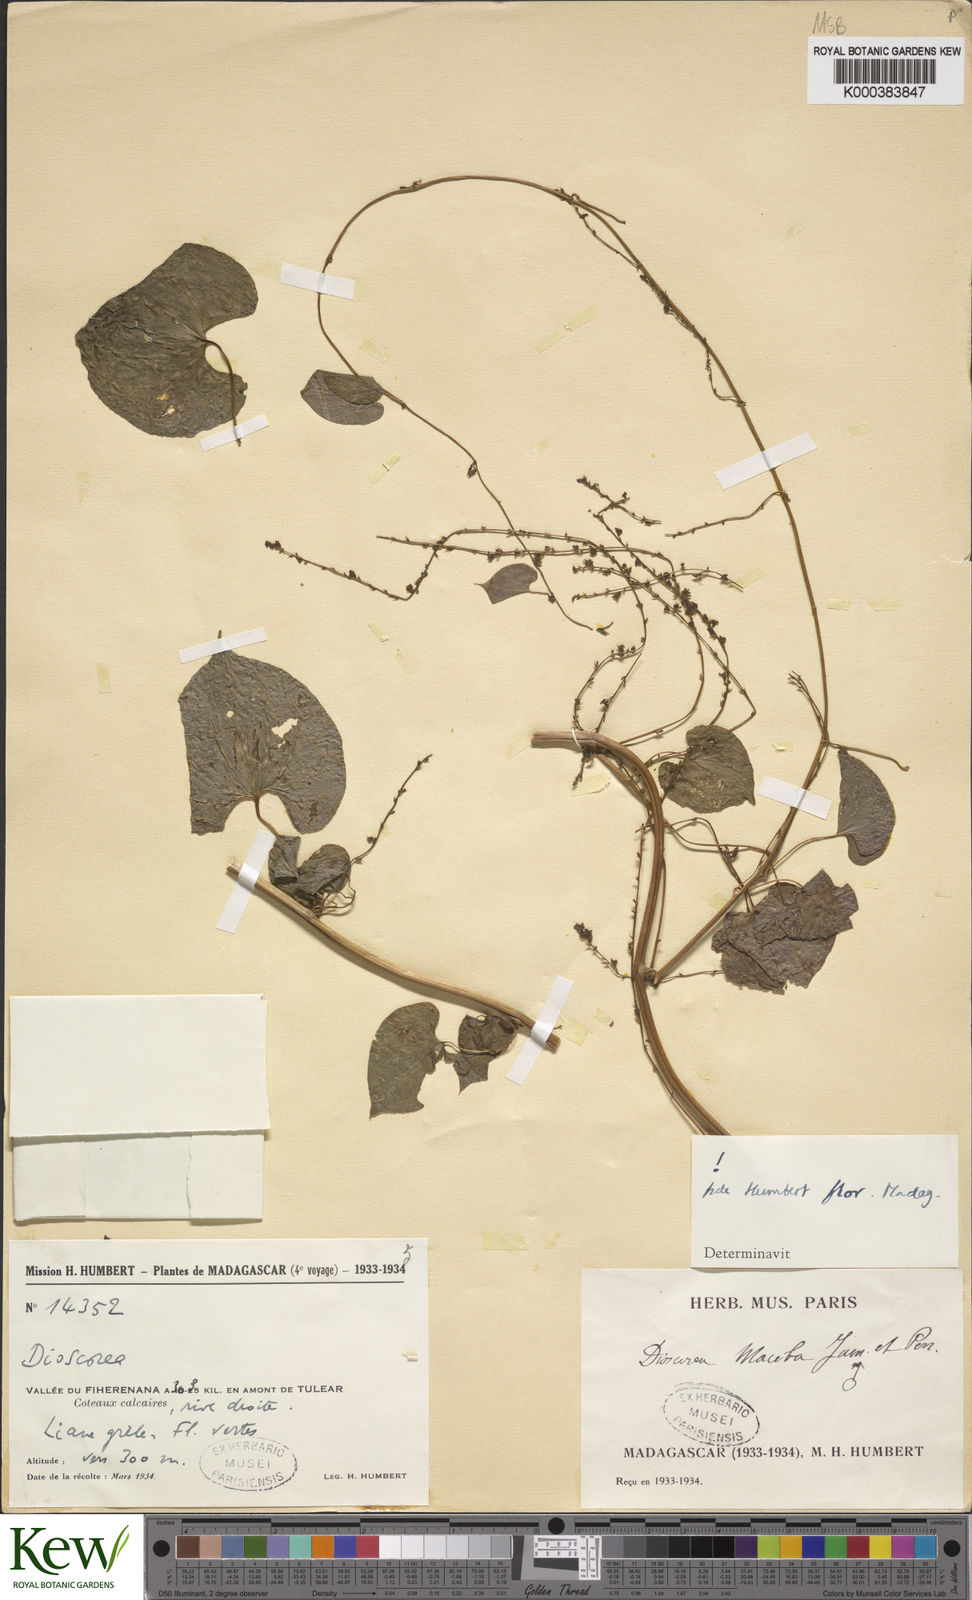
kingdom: Plantae
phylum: Tracheophyta
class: Liliopsida
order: Dioscoreales
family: Dioscoreaceae
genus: Dioscorea
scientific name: Dioscorea
